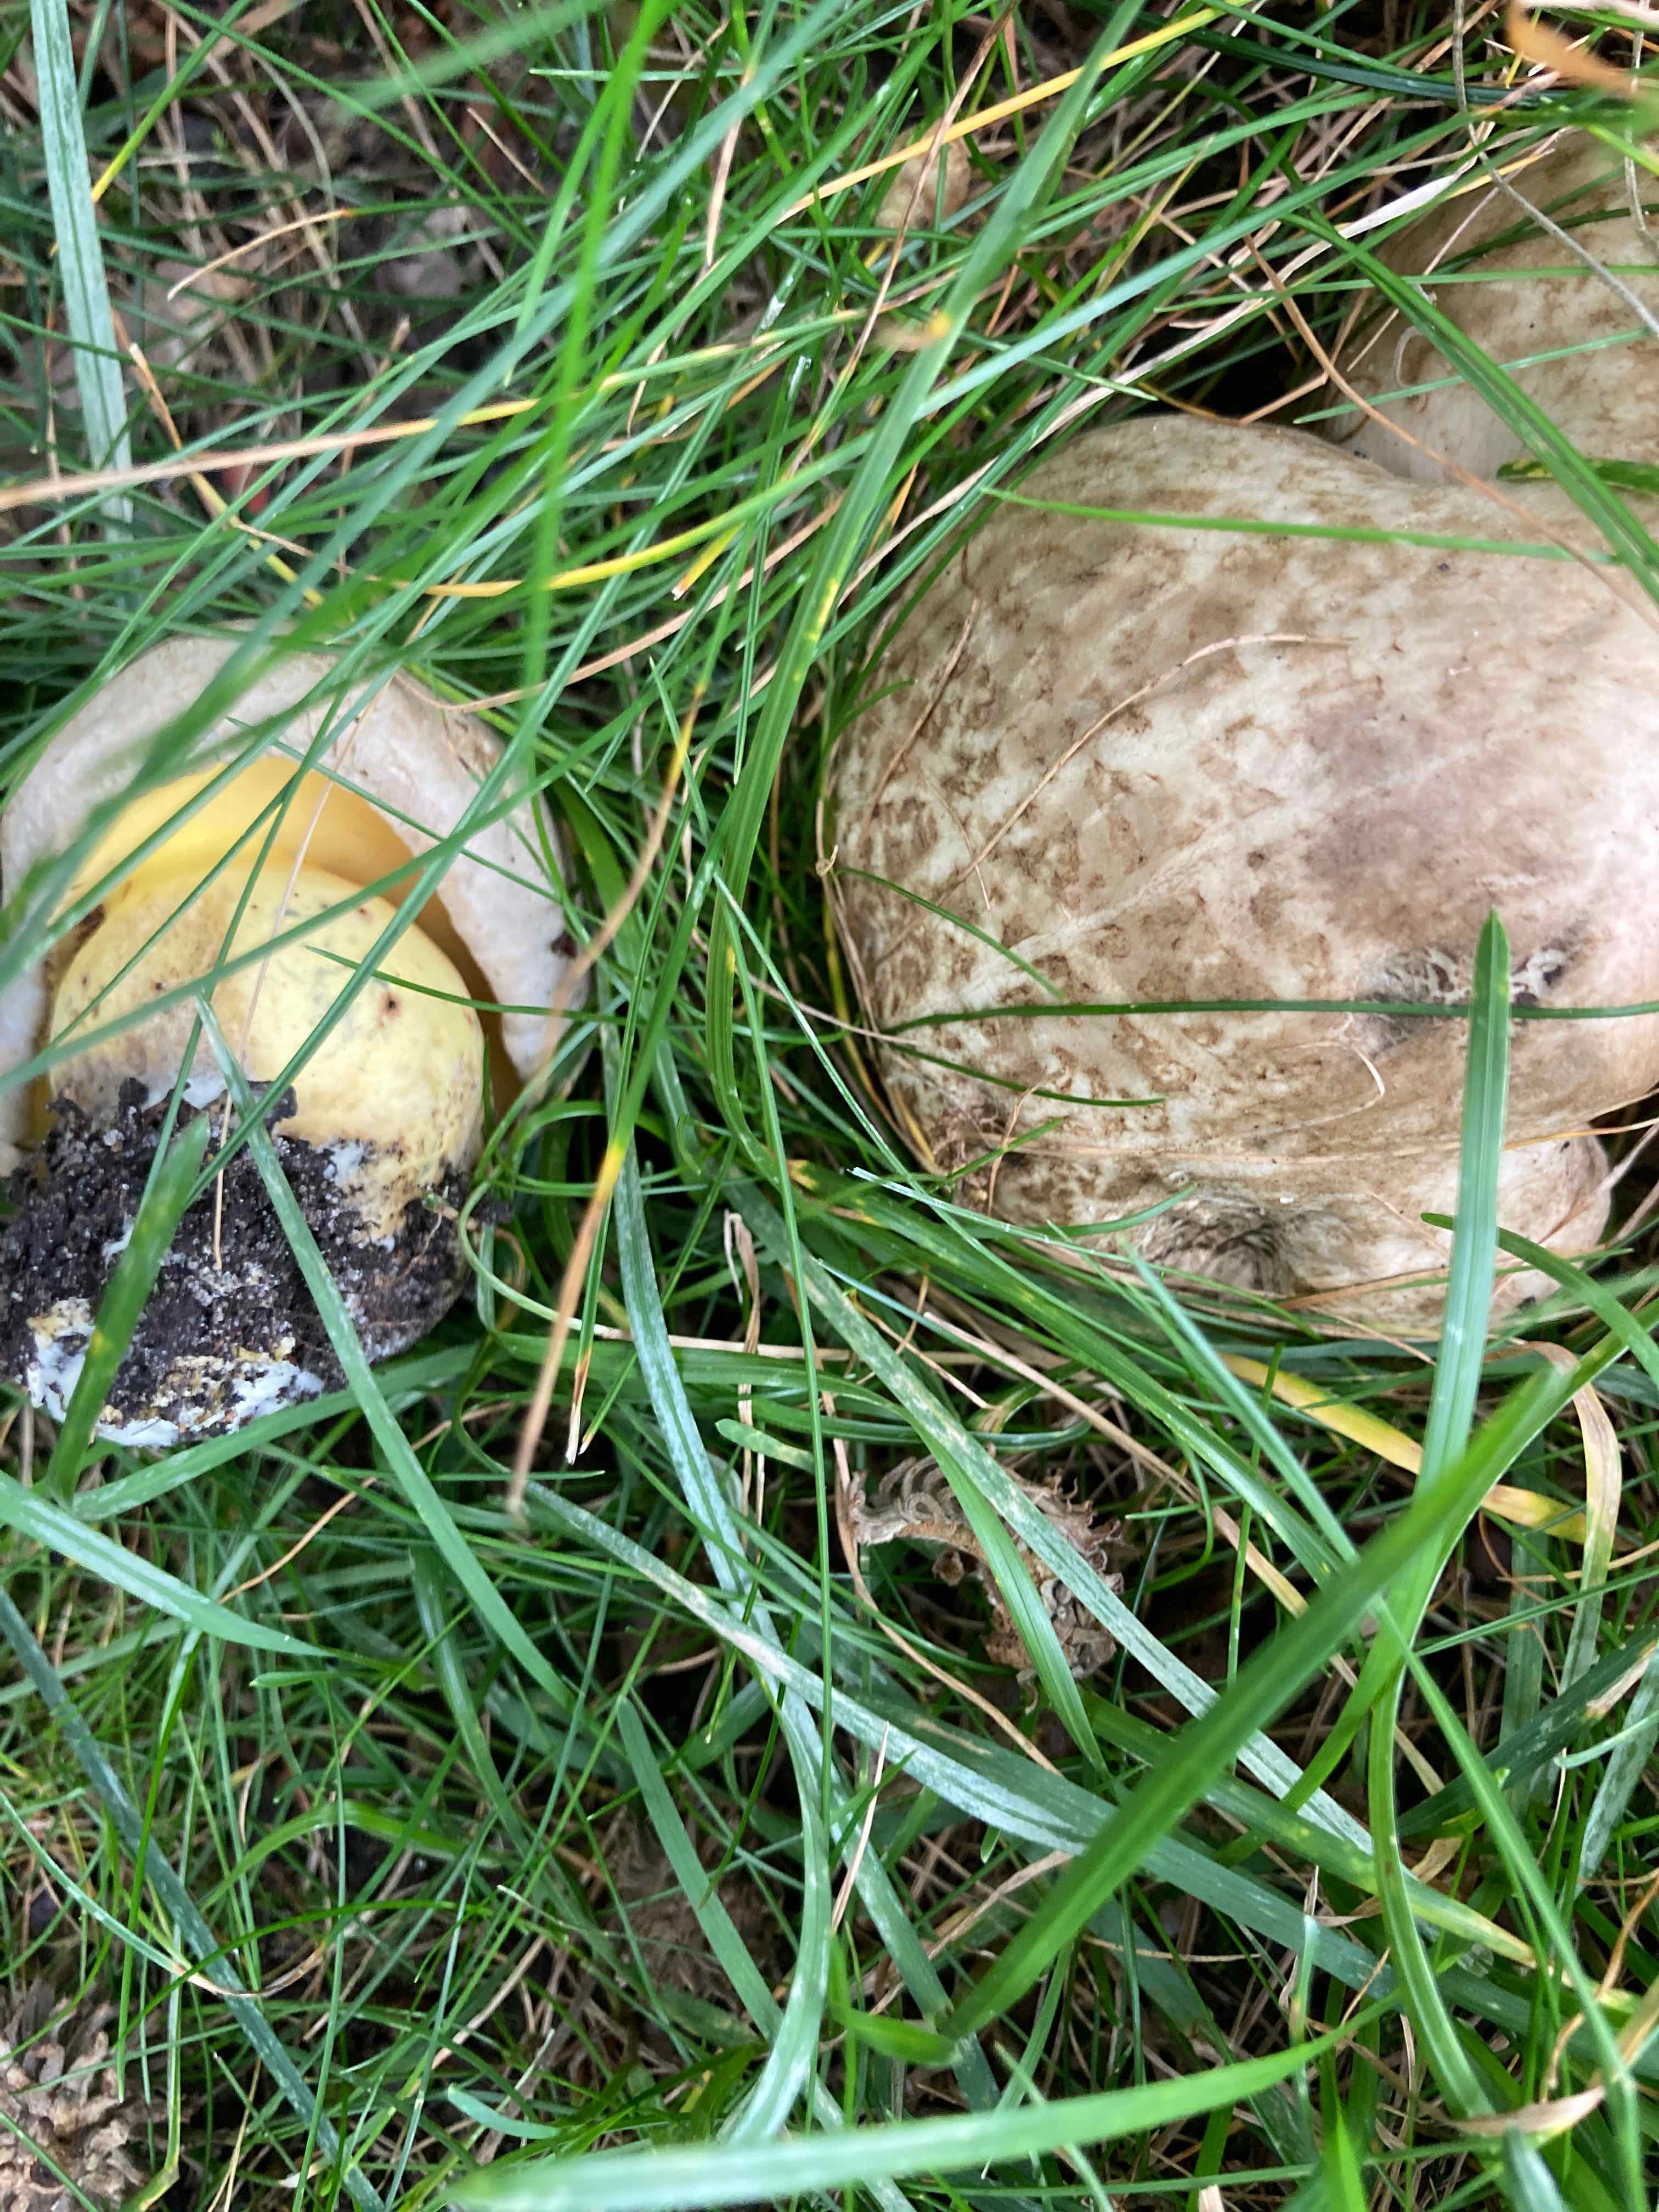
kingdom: Fungi
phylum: Basidiomycota
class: Agaricomycetes
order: Boletales
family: Boletaceae
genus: Caloboletus
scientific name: Caloboletus radicans
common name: rod-rørhat
